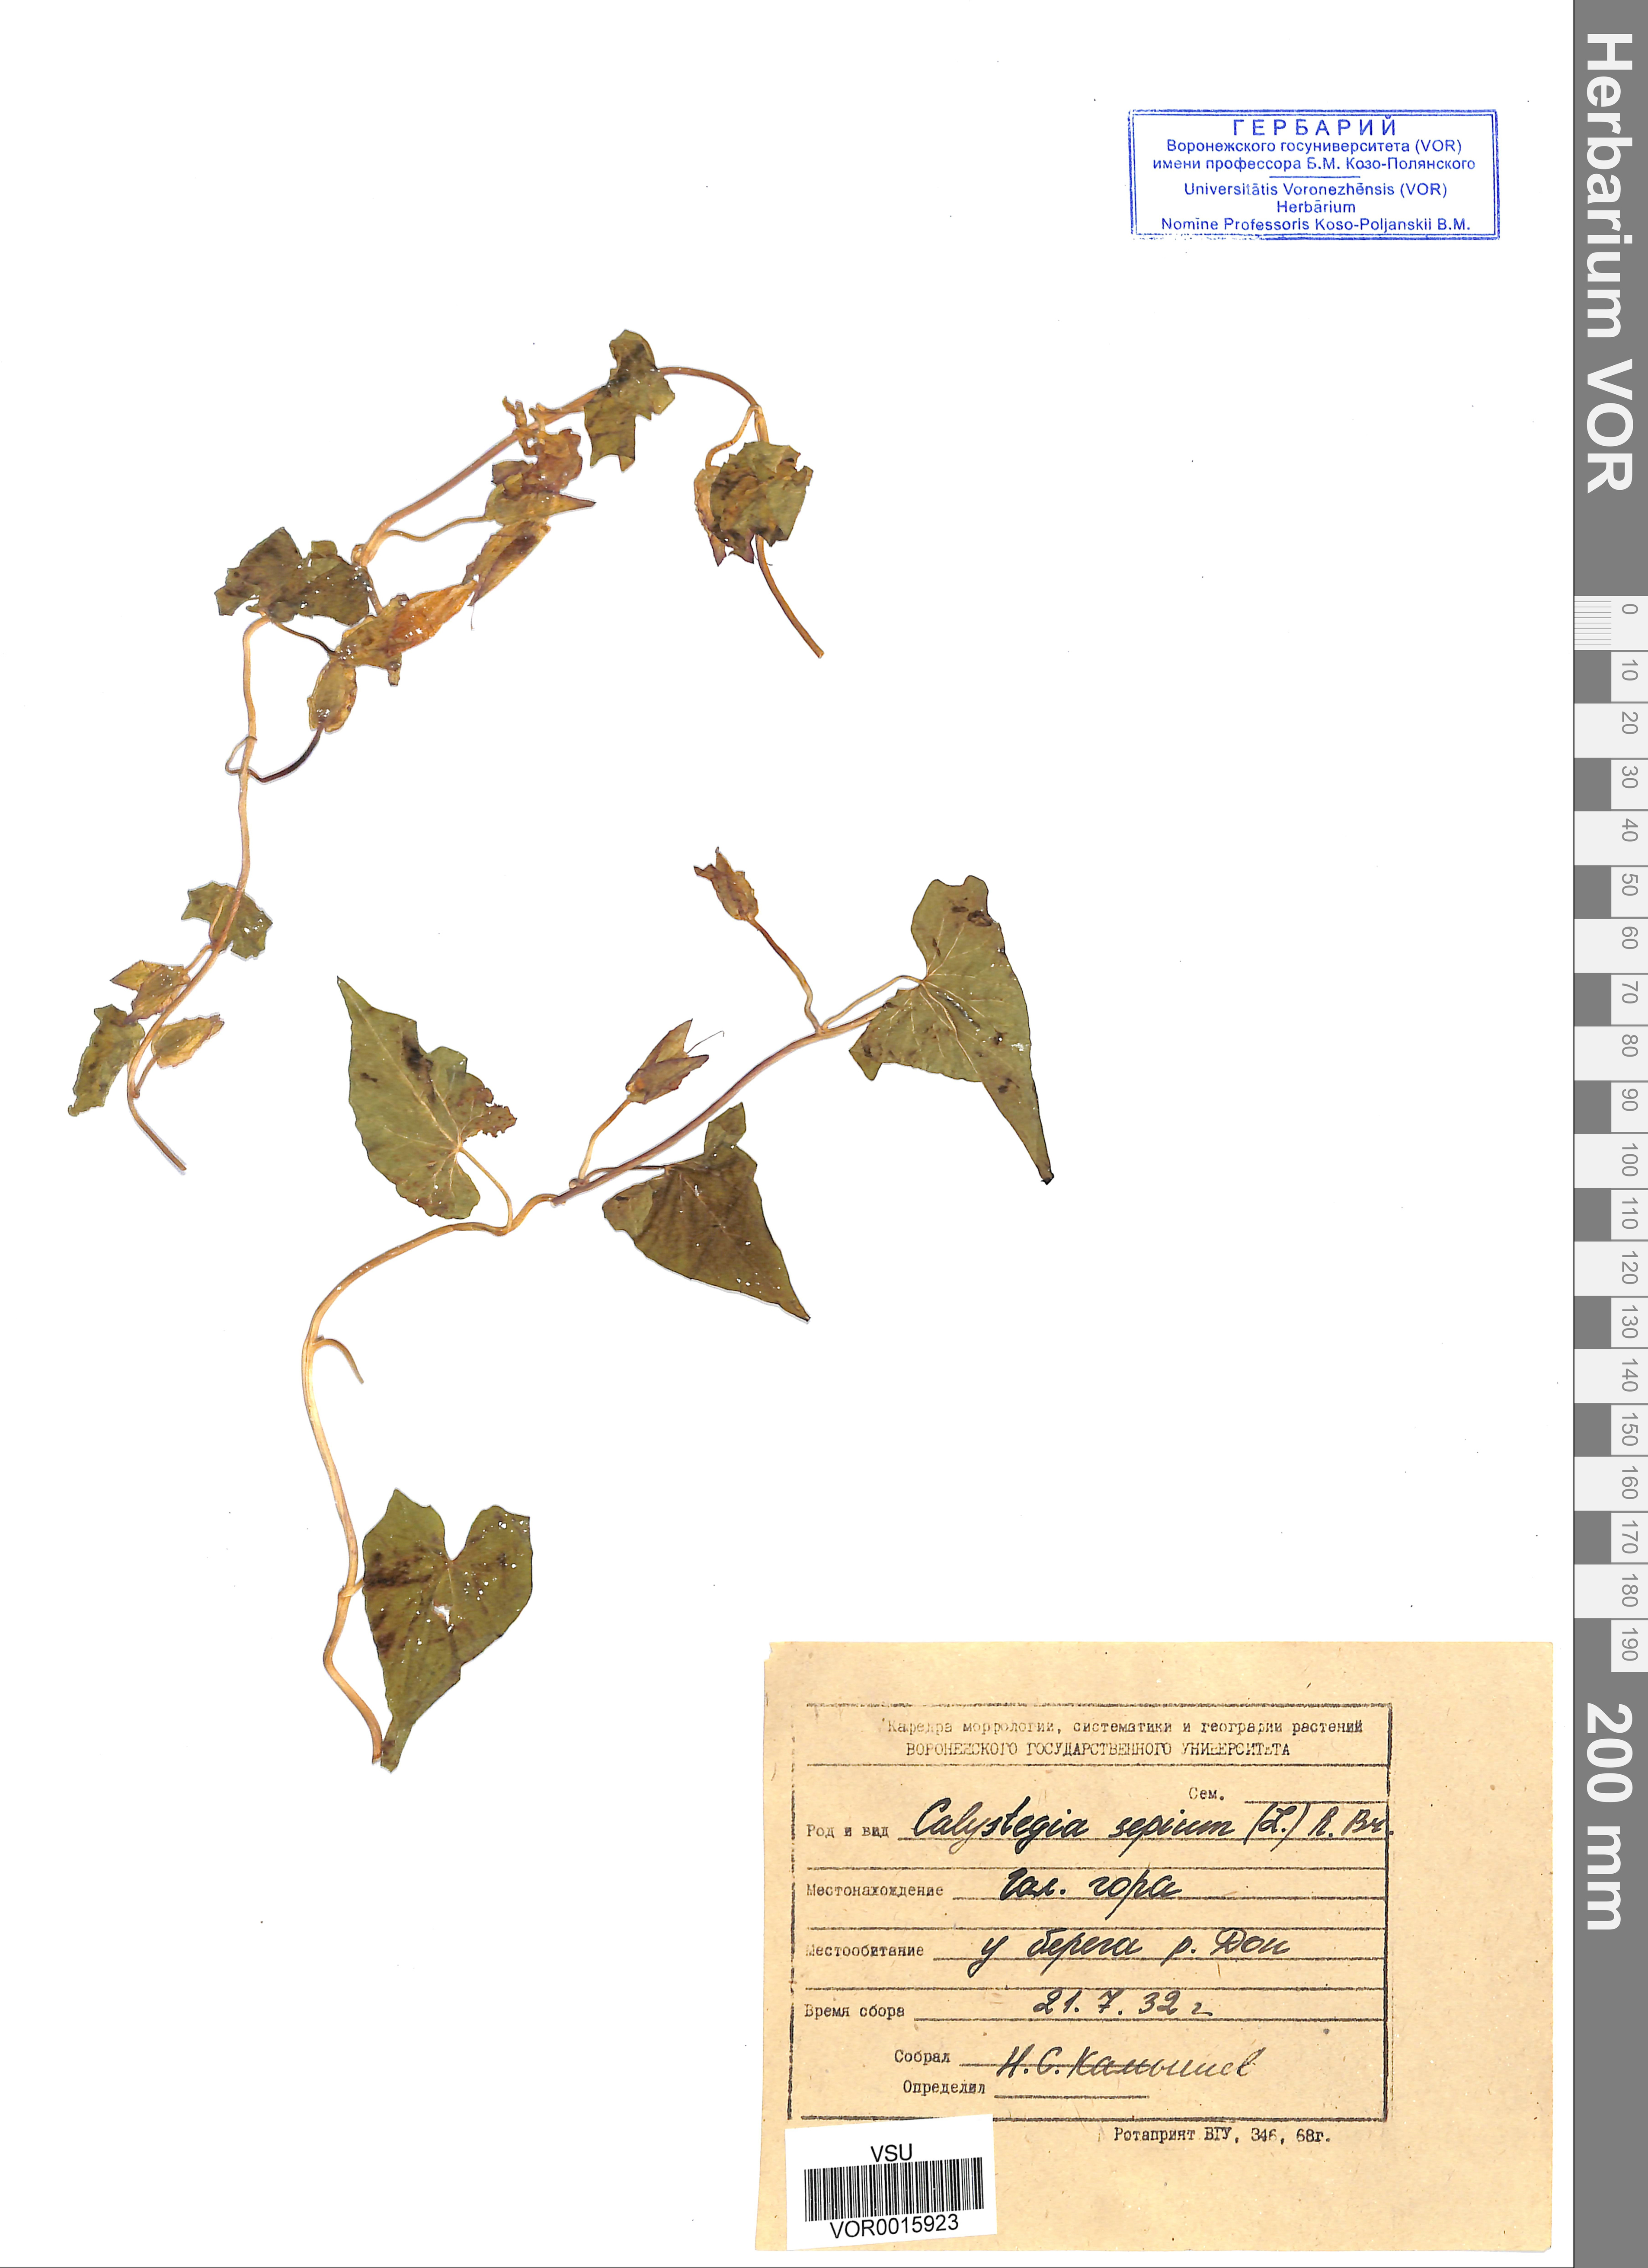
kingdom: Plantae
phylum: Tracheophyta
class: Magnoliopsida
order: Solanales
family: Convolvulaceae
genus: Calystegia
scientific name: Calystegia sepium
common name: Hedge bindweed
